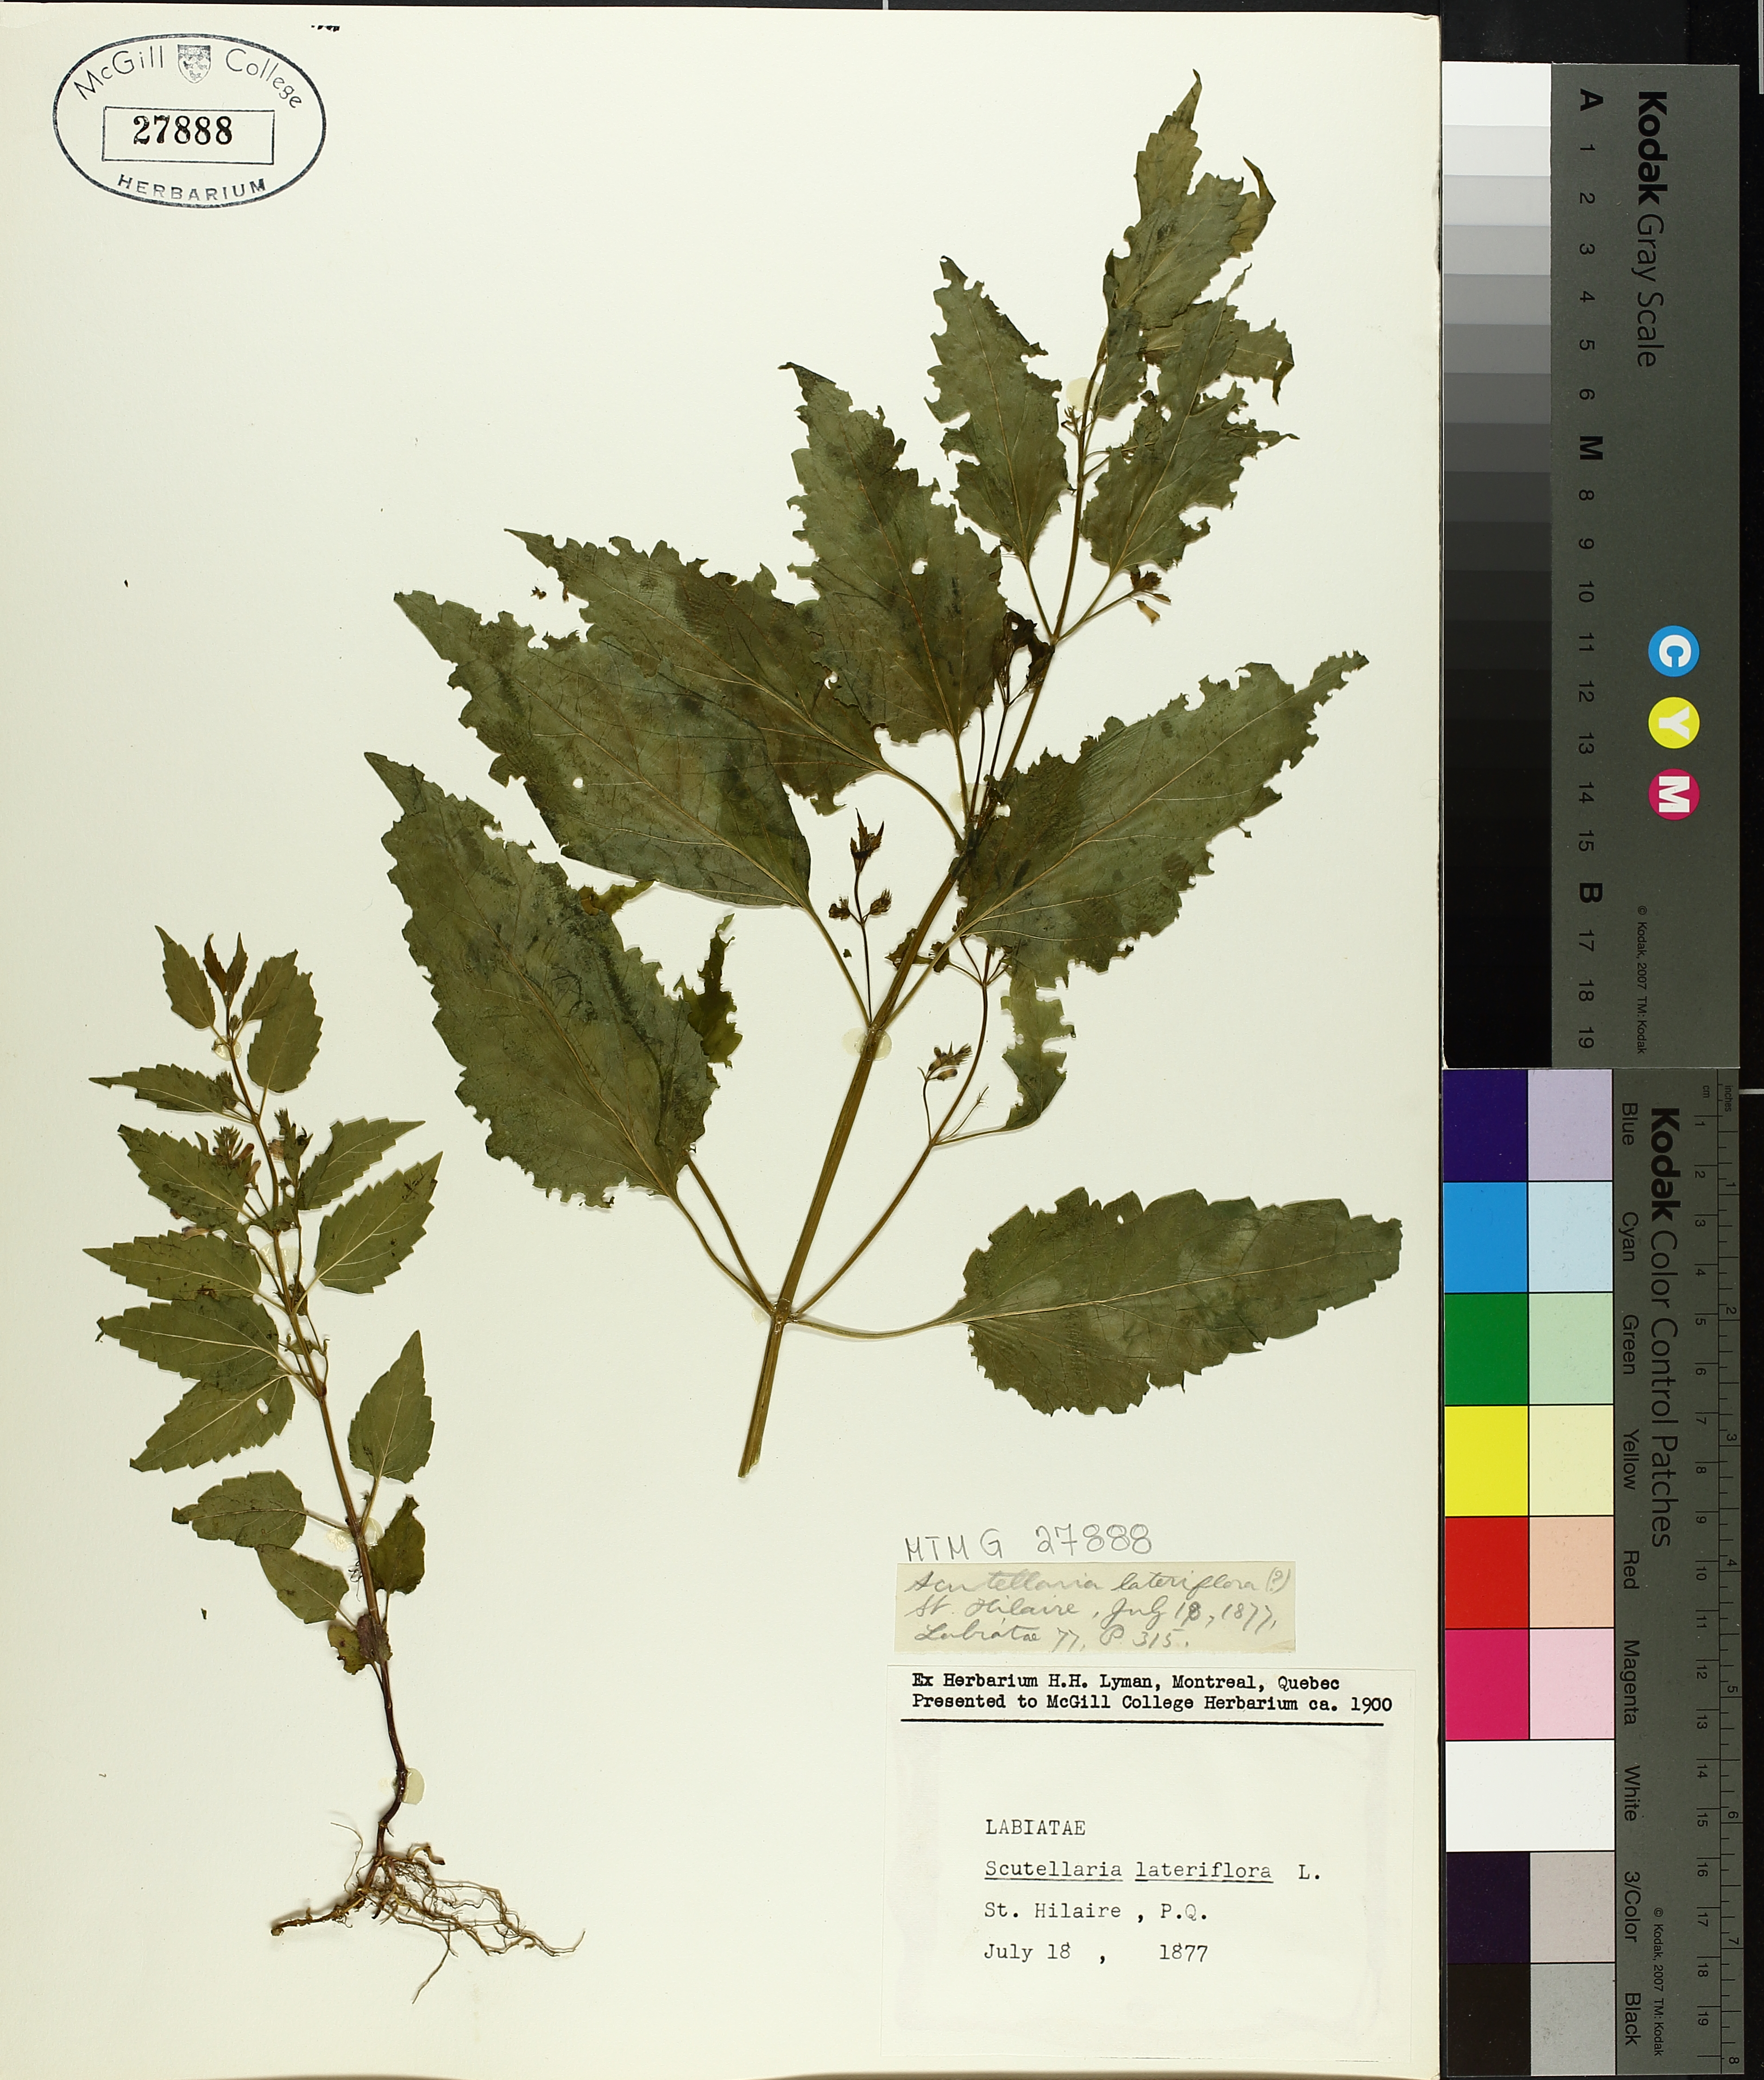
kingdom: Plantae
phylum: Tracheophyta
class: Magnoliopsida
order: Lamiales
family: Lamiaceae
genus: Scutellaria
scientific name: Scutellaria lateriflora
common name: Blue skullcap
